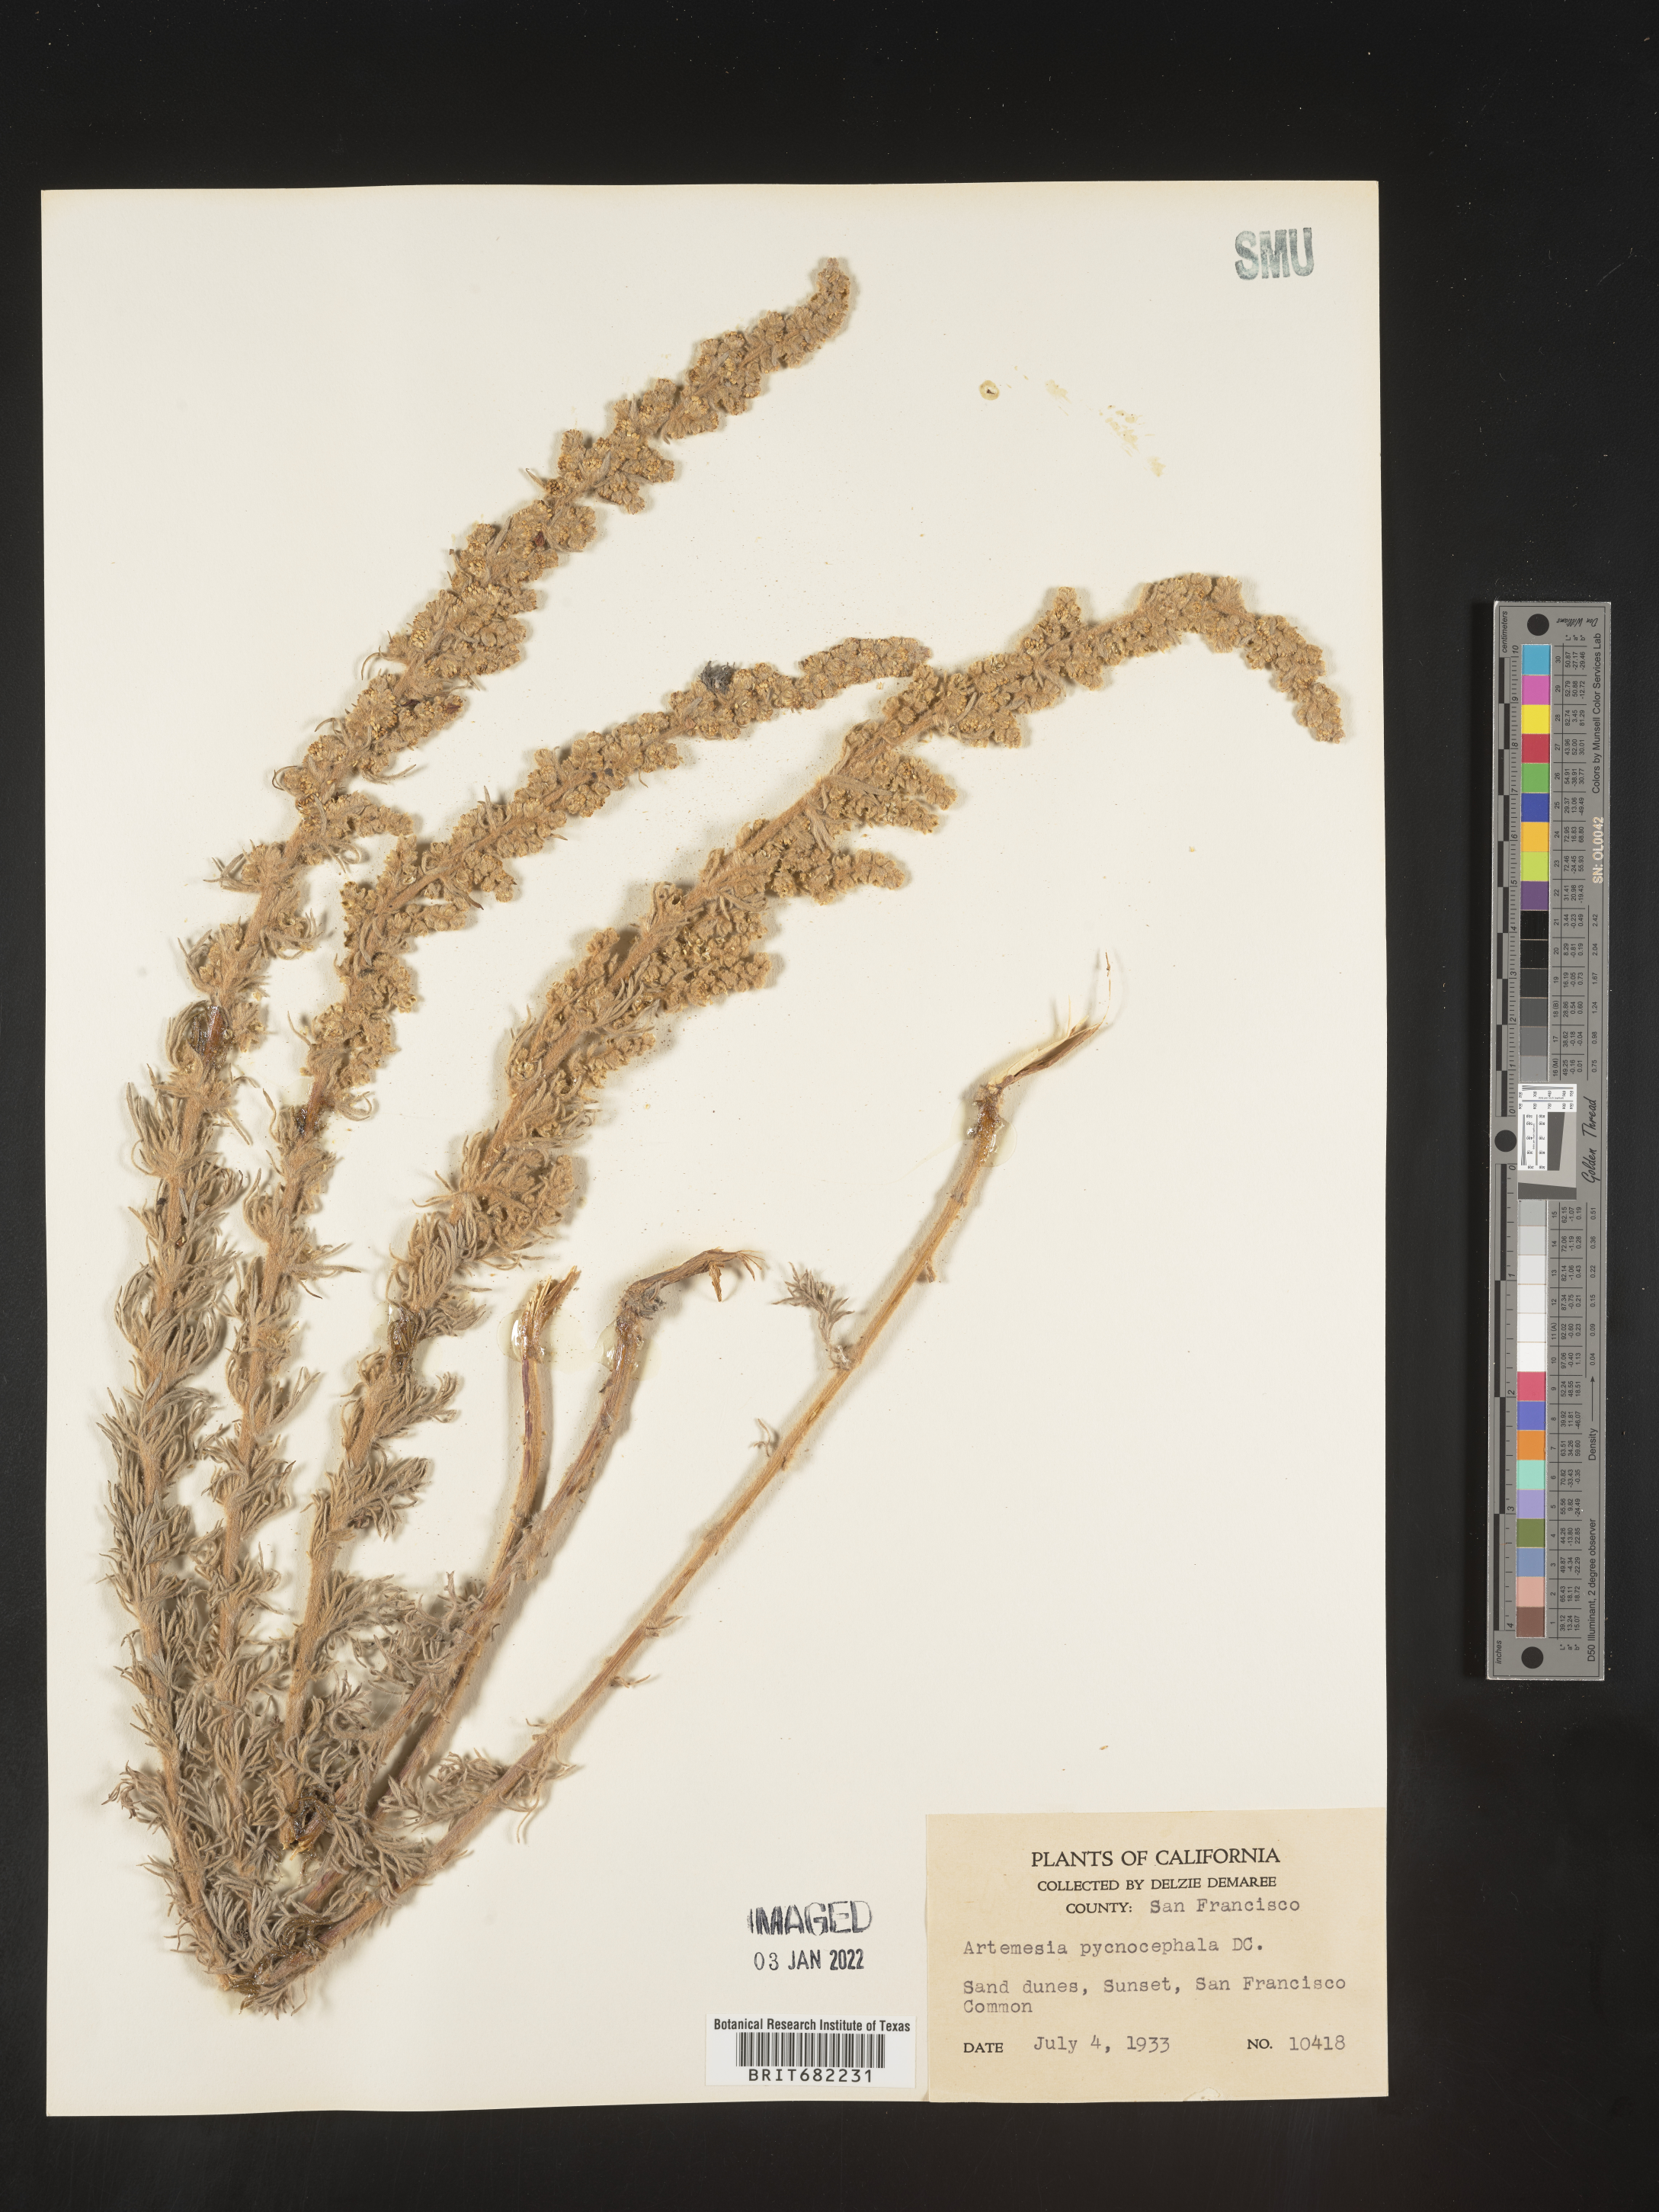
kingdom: Plantae
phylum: Tracheophyta
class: Magnoliopsida
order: Asterales
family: Asteraceae
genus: Artemisia
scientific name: Artemisia pycnocephala
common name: Coastal sagewort
